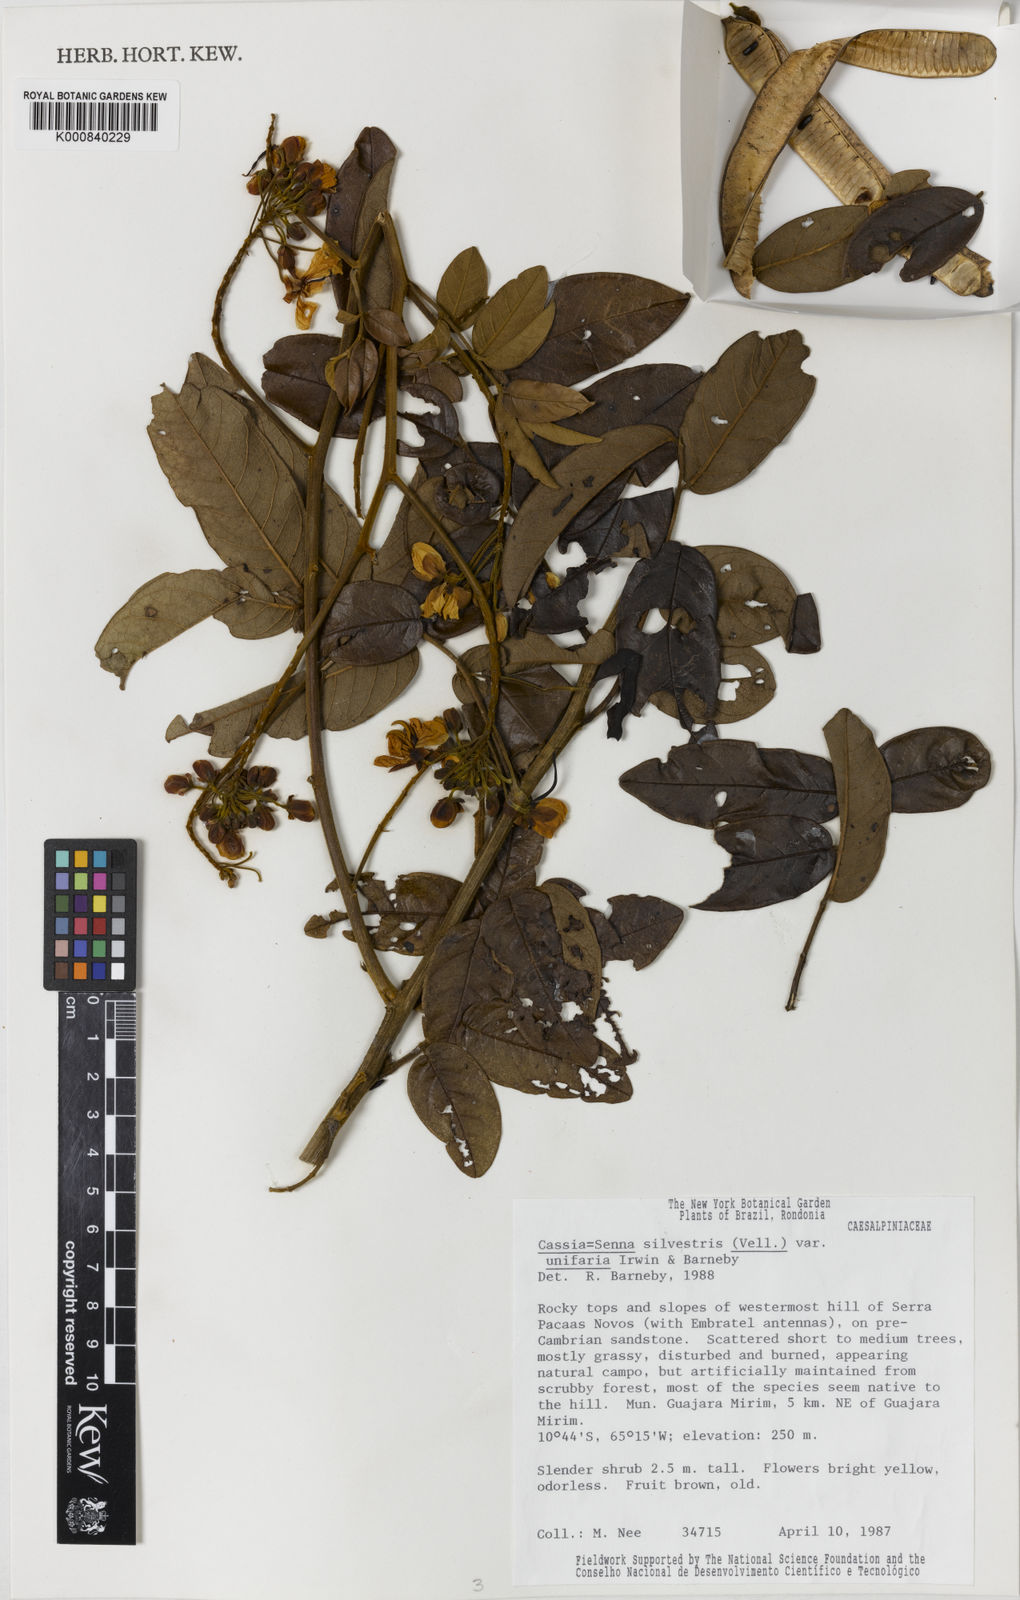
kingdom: Plantae
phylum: Tracheophyta
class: Magnoliopsida
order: Fabales
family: Fabaceae
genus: Senna
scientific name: Senna silvestris
